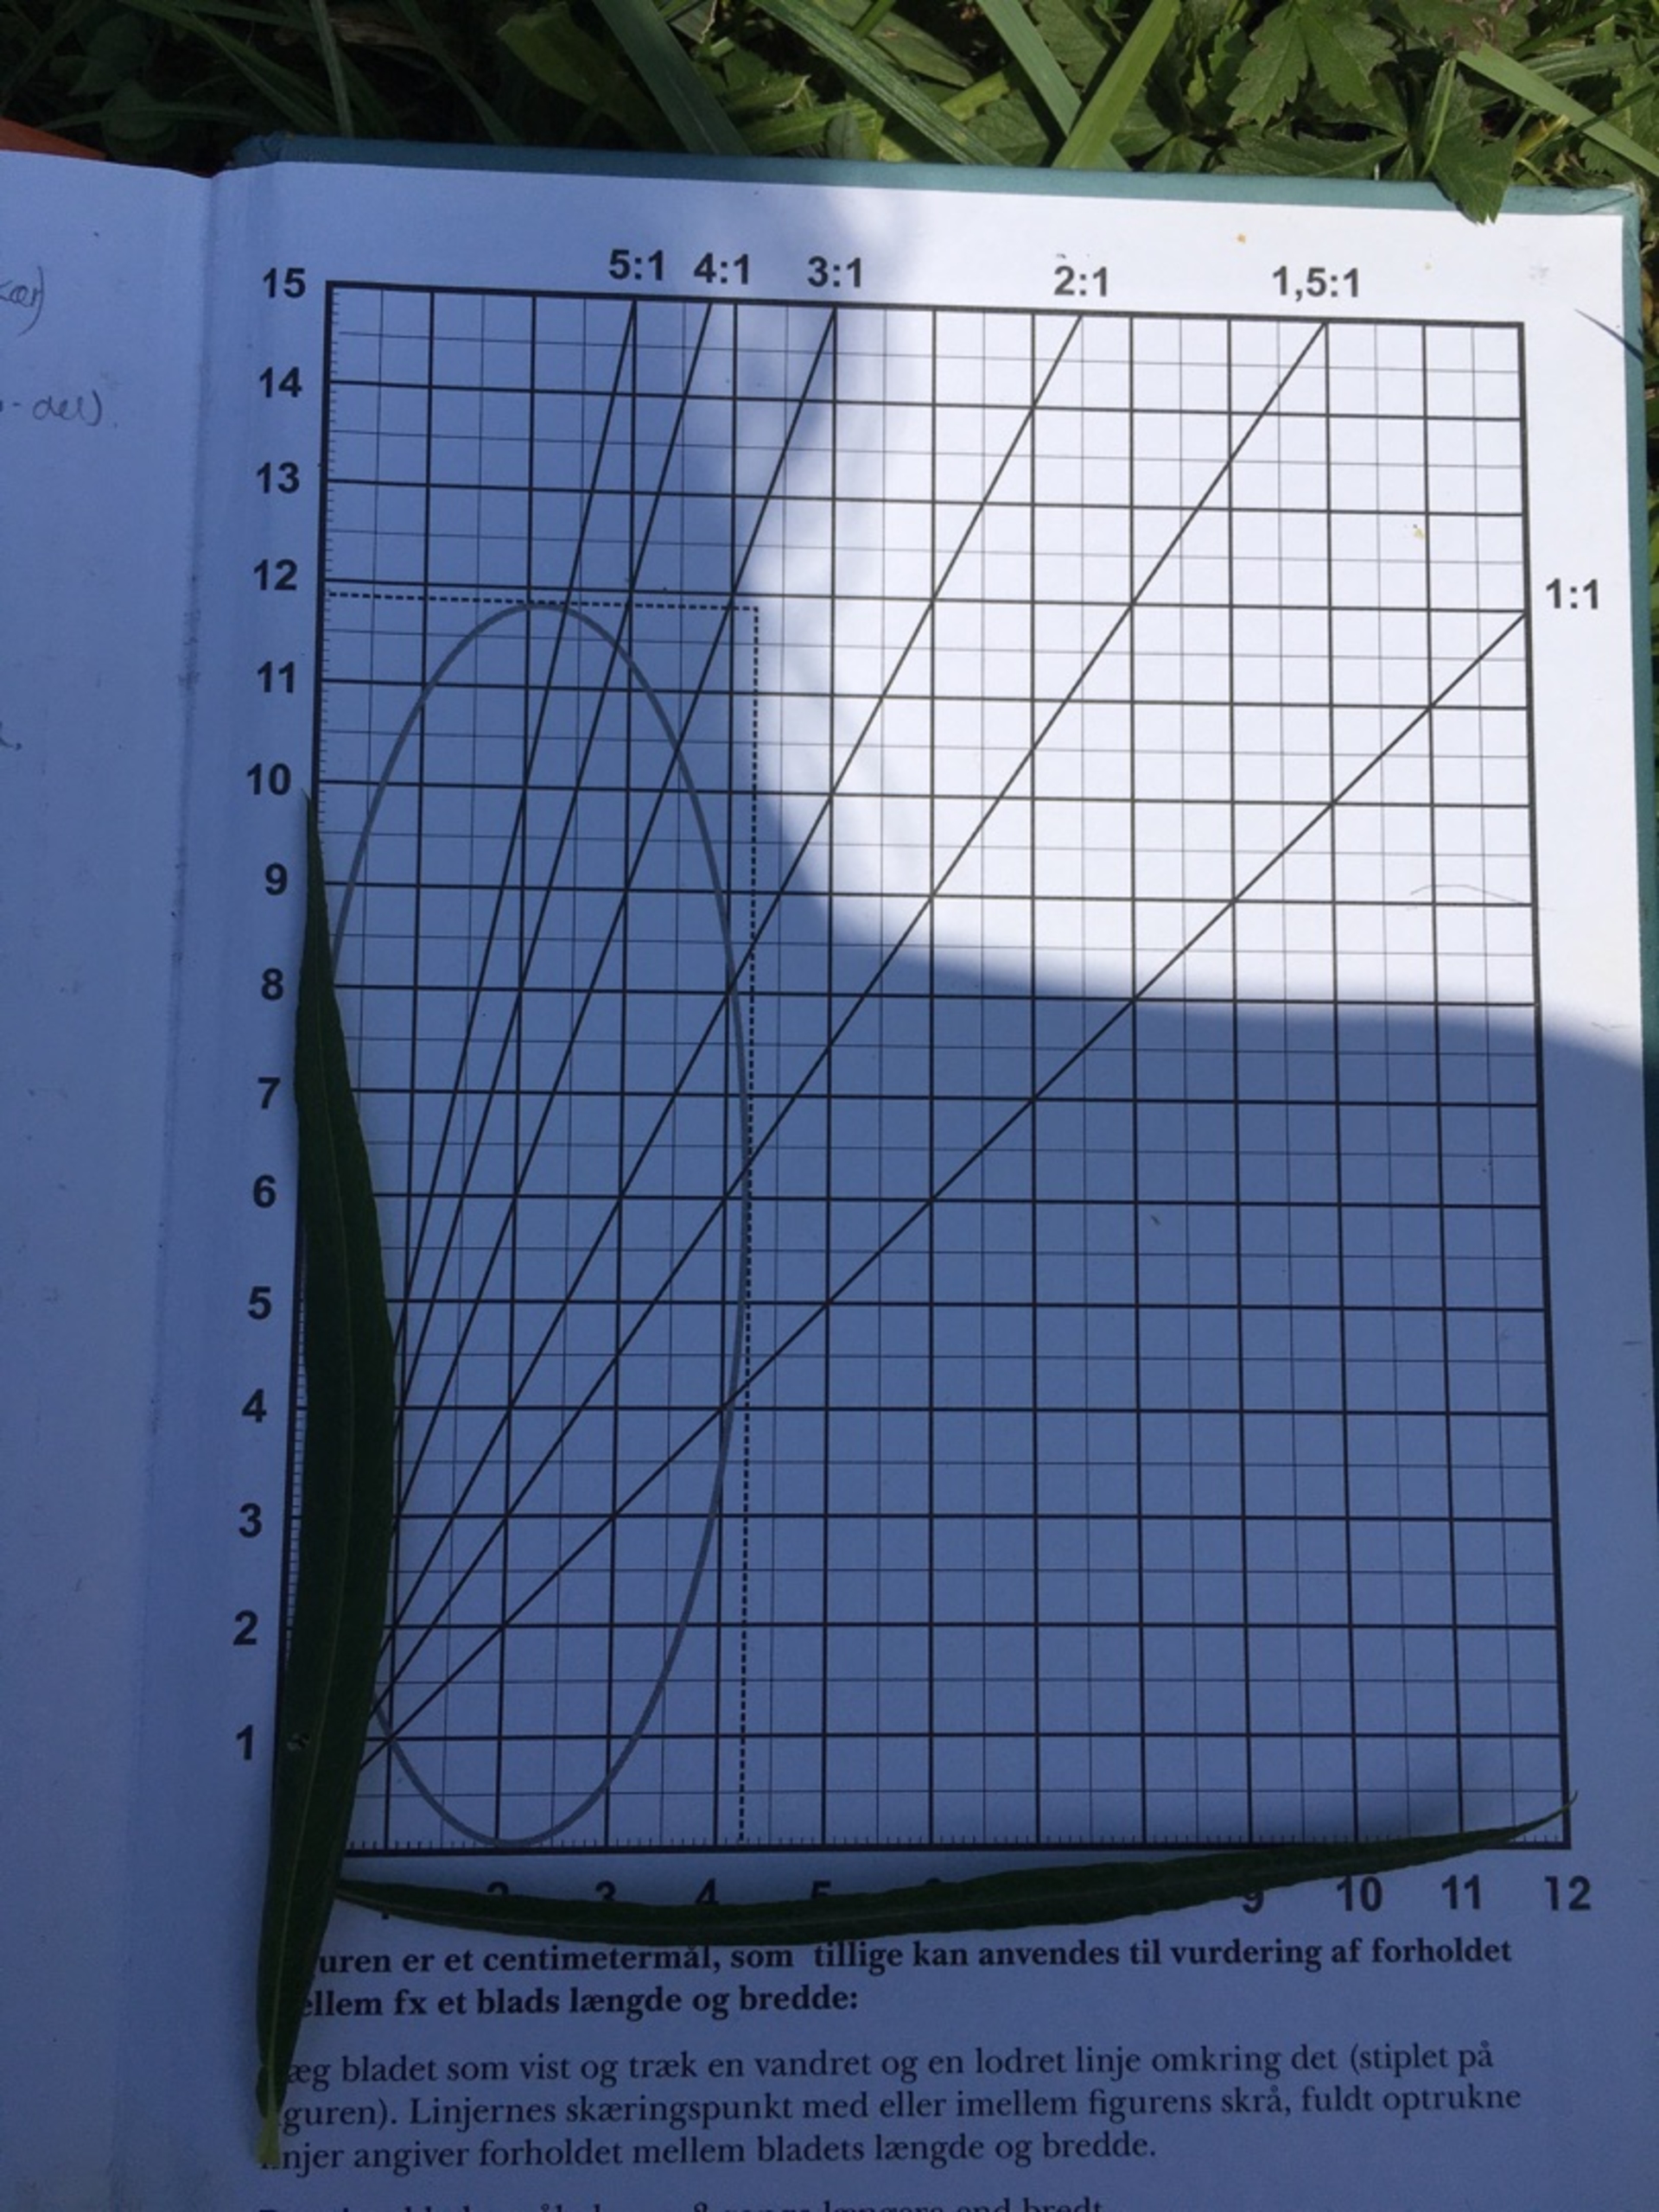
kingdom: Plantae
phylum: Tracheophyta
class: Magnoliopsida
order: Malpighiales
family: Salicaceae
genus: Salix
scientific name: Salix viminalis
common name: Bånd-pil
